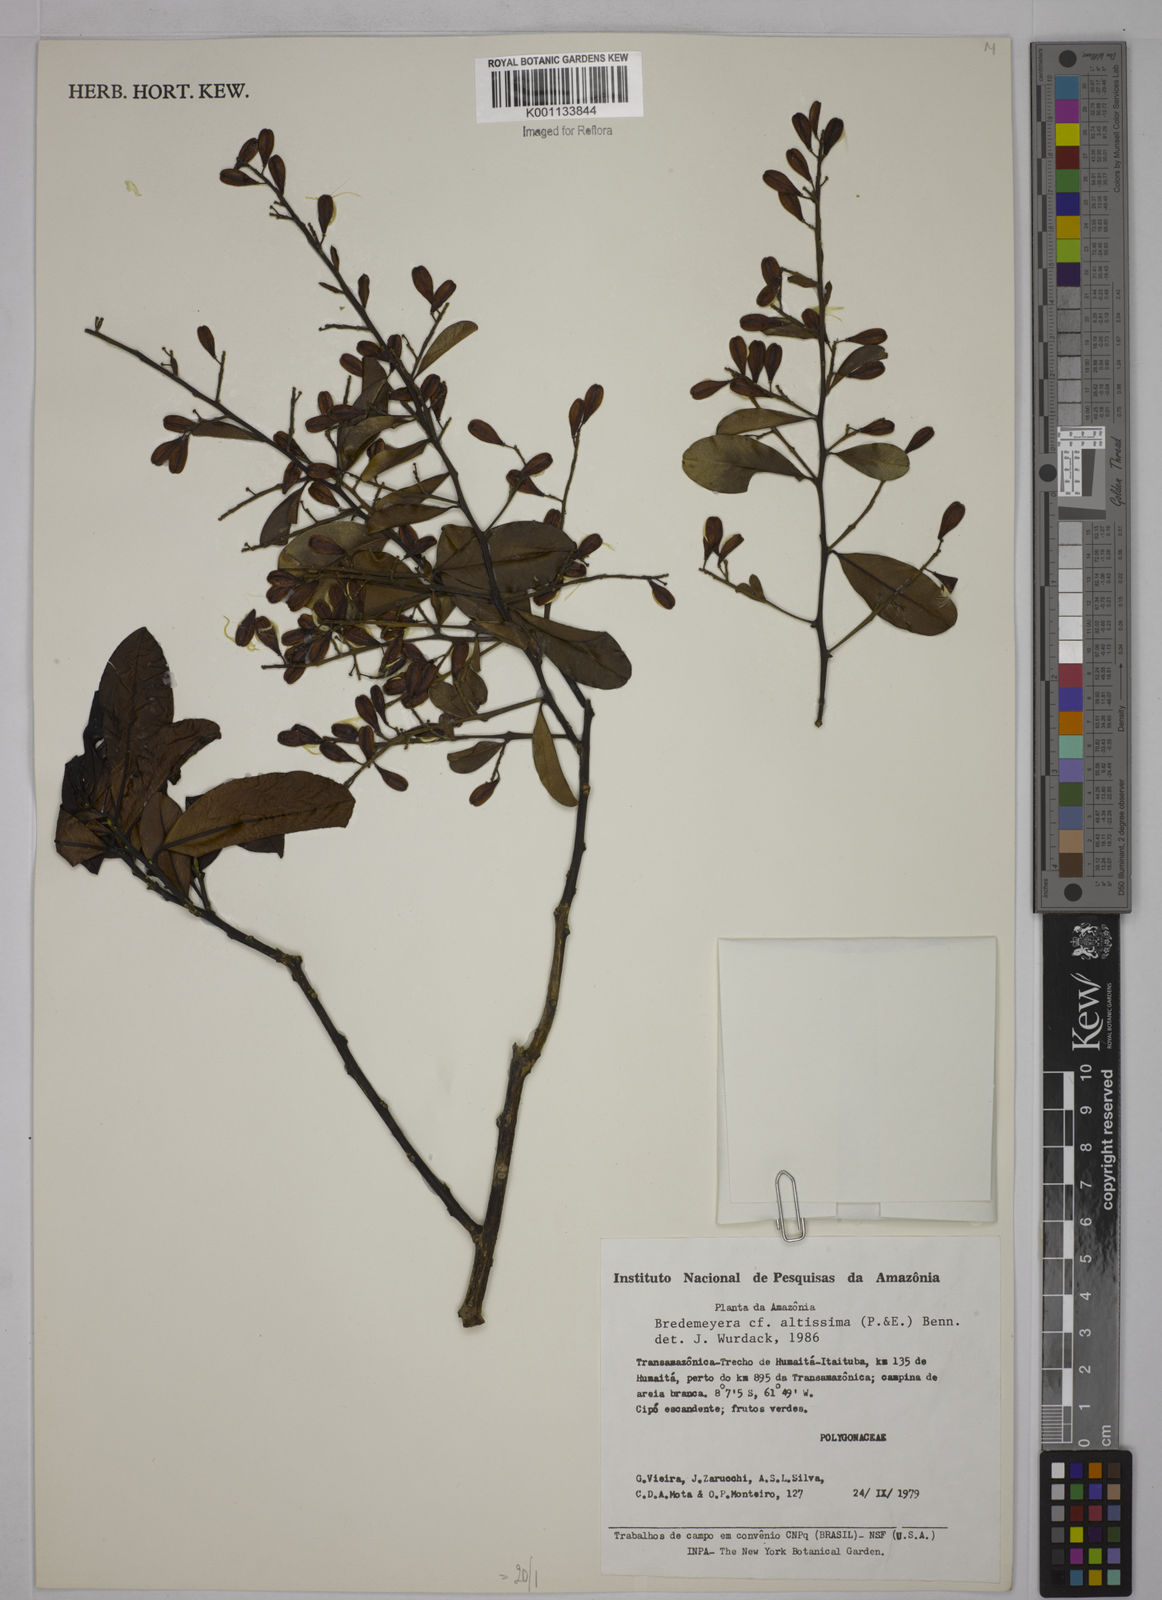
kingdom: Plantae
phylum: Tracheophyta
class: Magnoliopsida
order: Fabales
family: Polygalaceae
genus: Bredemeyera
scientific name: Bredemeyera divaricata
